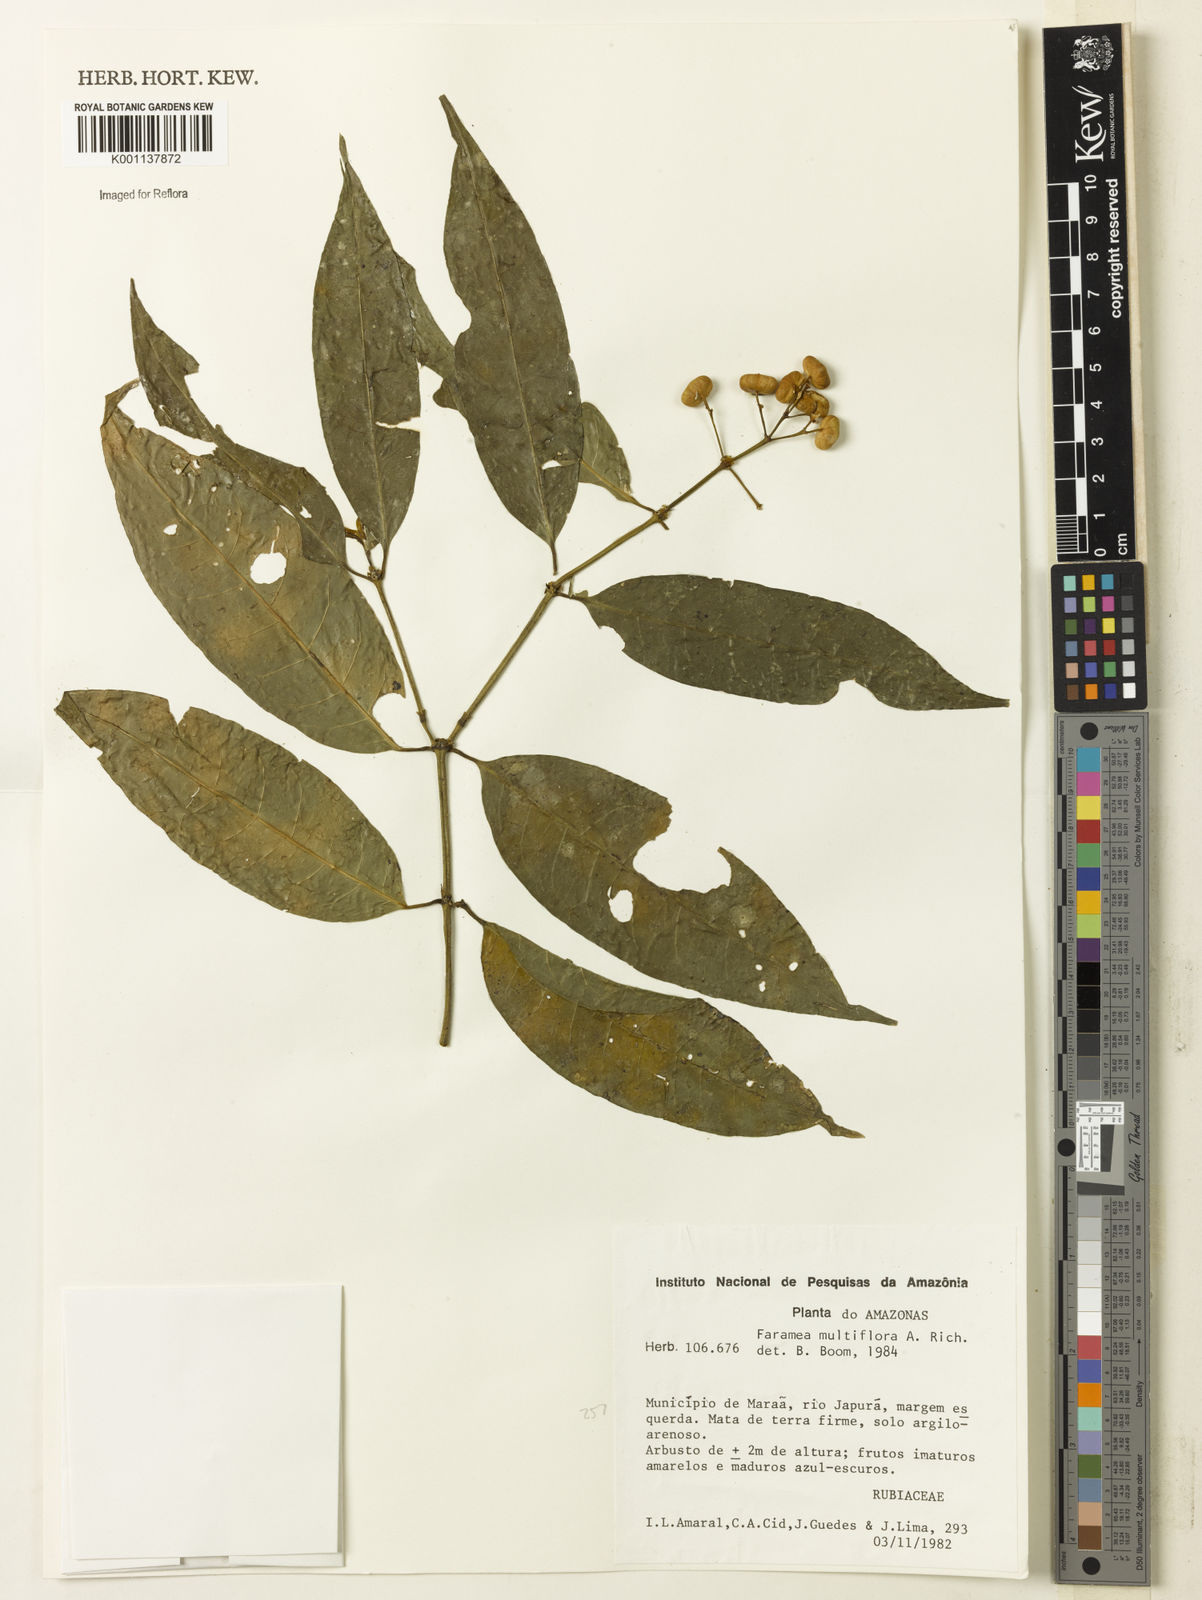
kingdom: Plantae
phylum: Tracheophyta
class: Magnoliopsida
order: Gentianales
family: Rubiaceae
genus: Faramea
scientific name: Faramea multiflora
